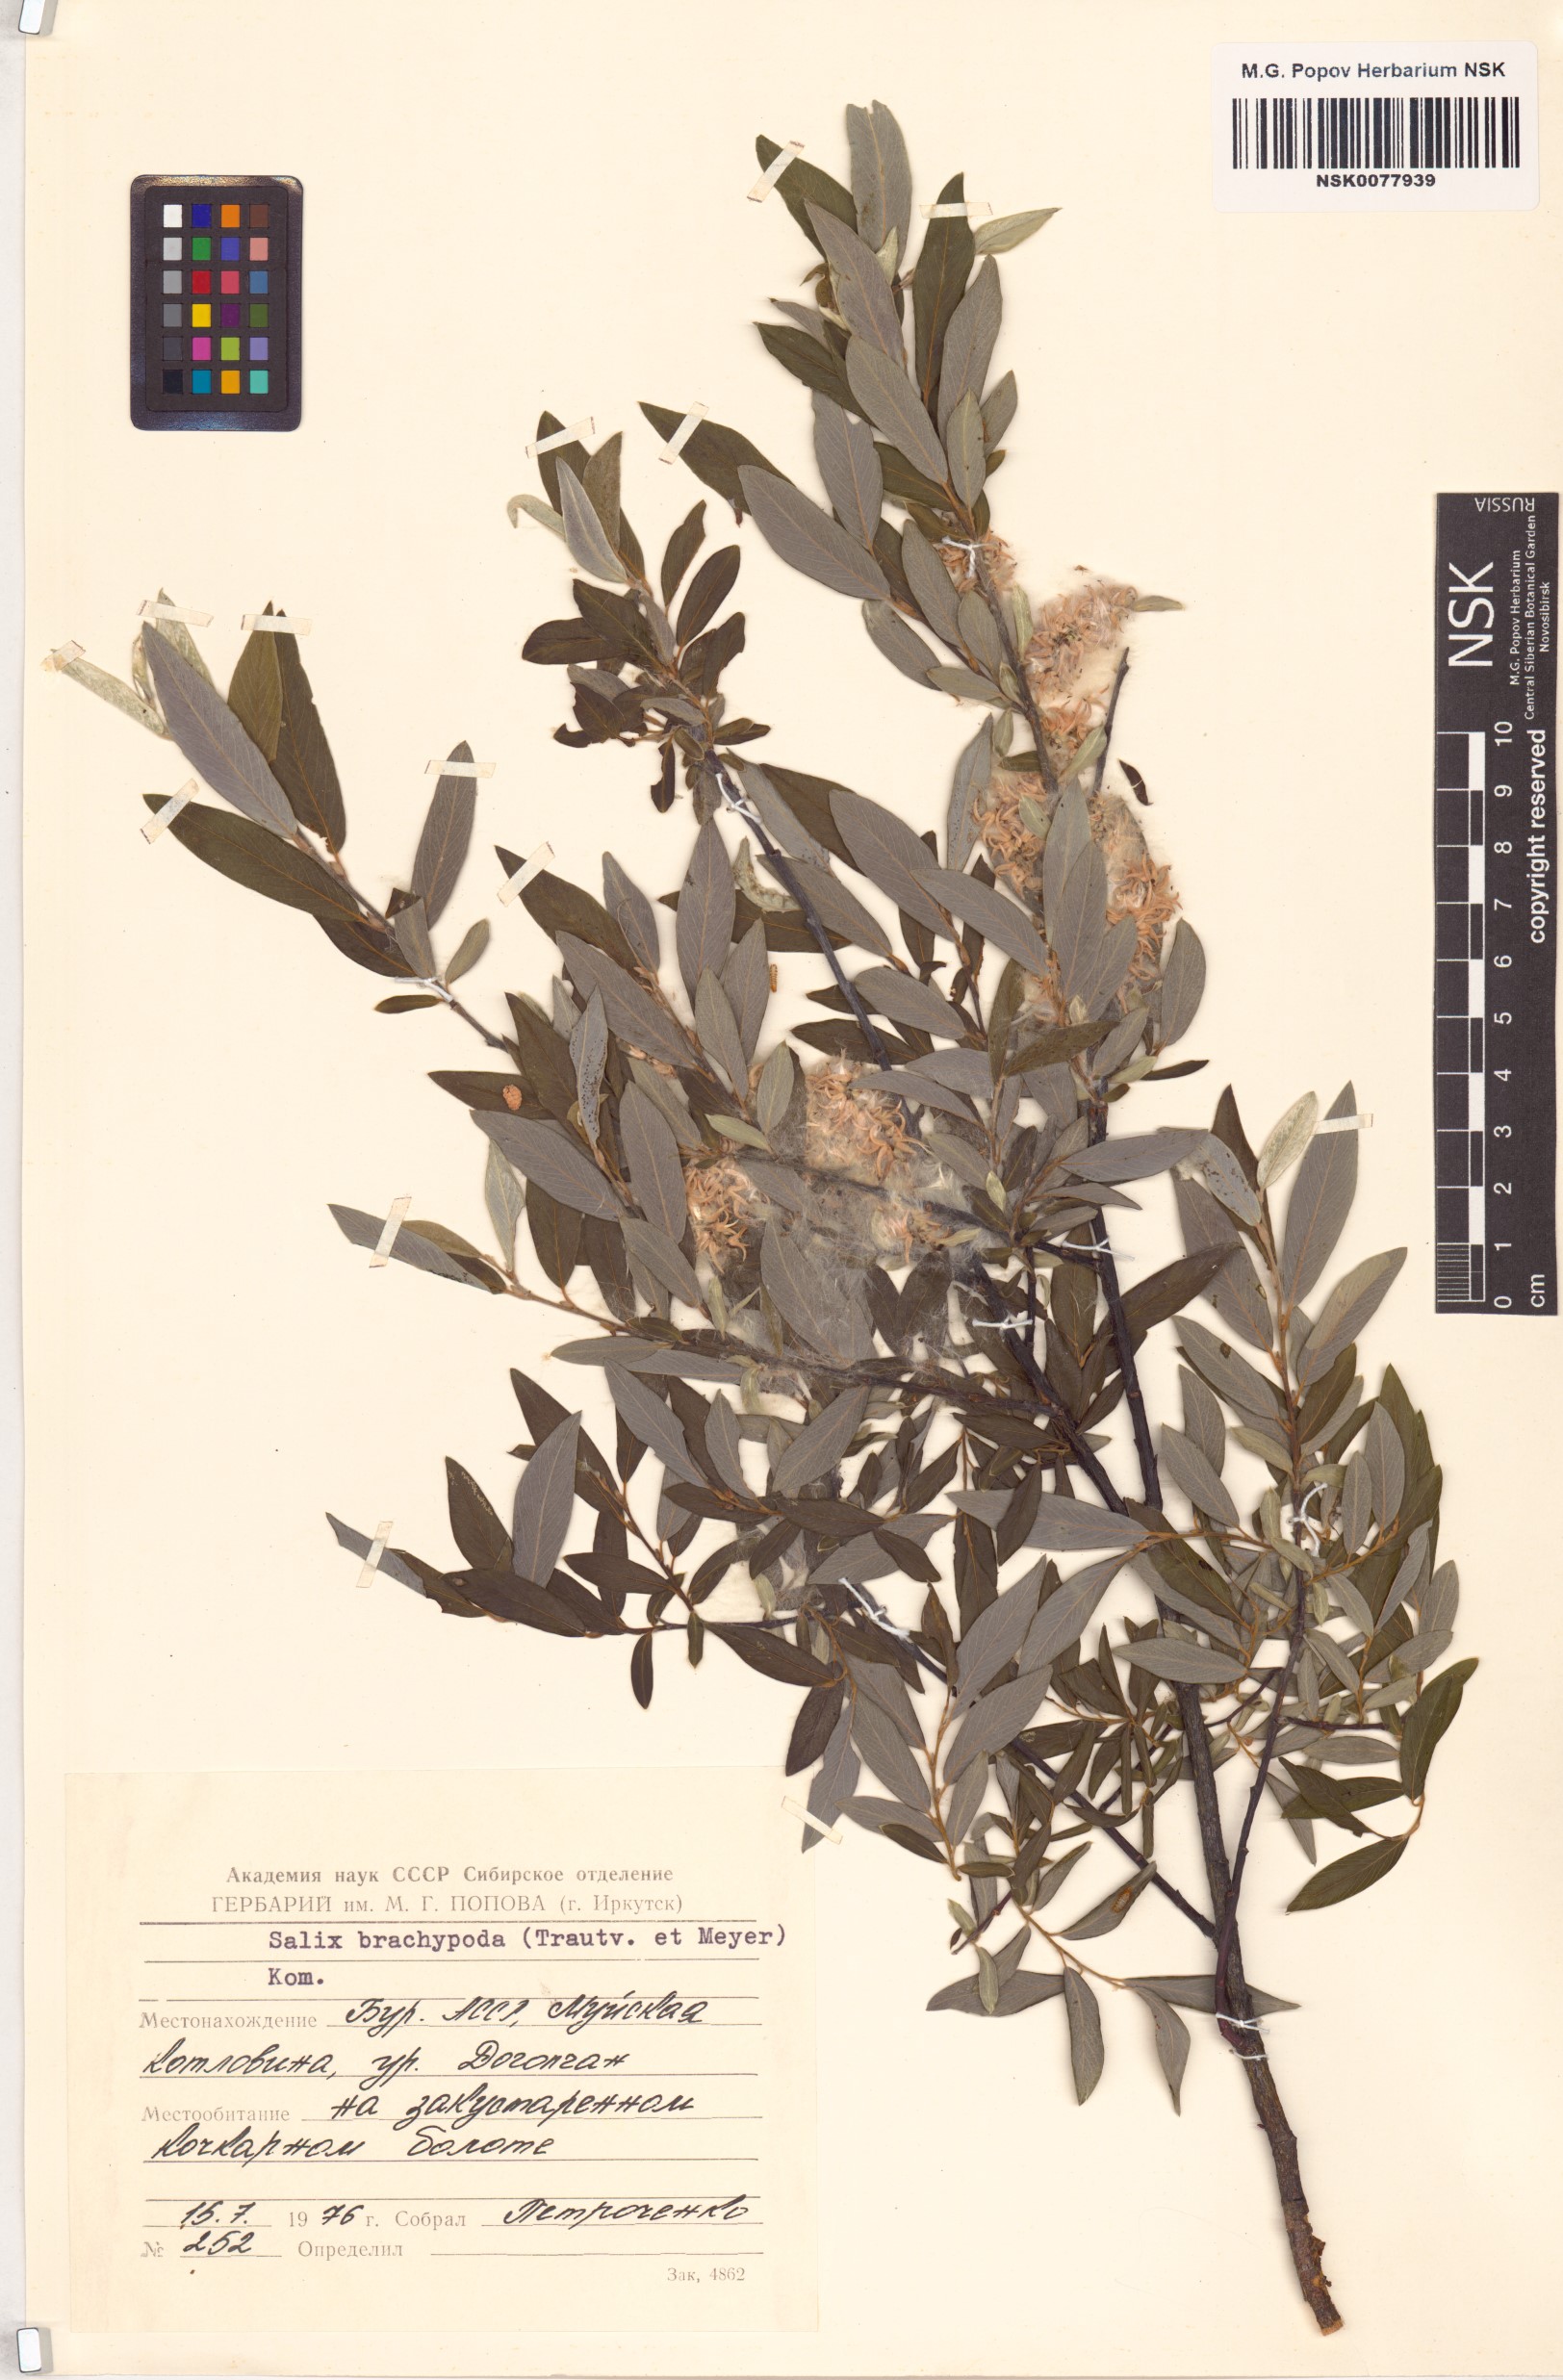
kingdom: Plantae
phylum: Tracheophyta
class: Magnoliopsida
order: Malpighiales
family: Salicaceae
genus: Salix
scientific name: Salix brachypoda
